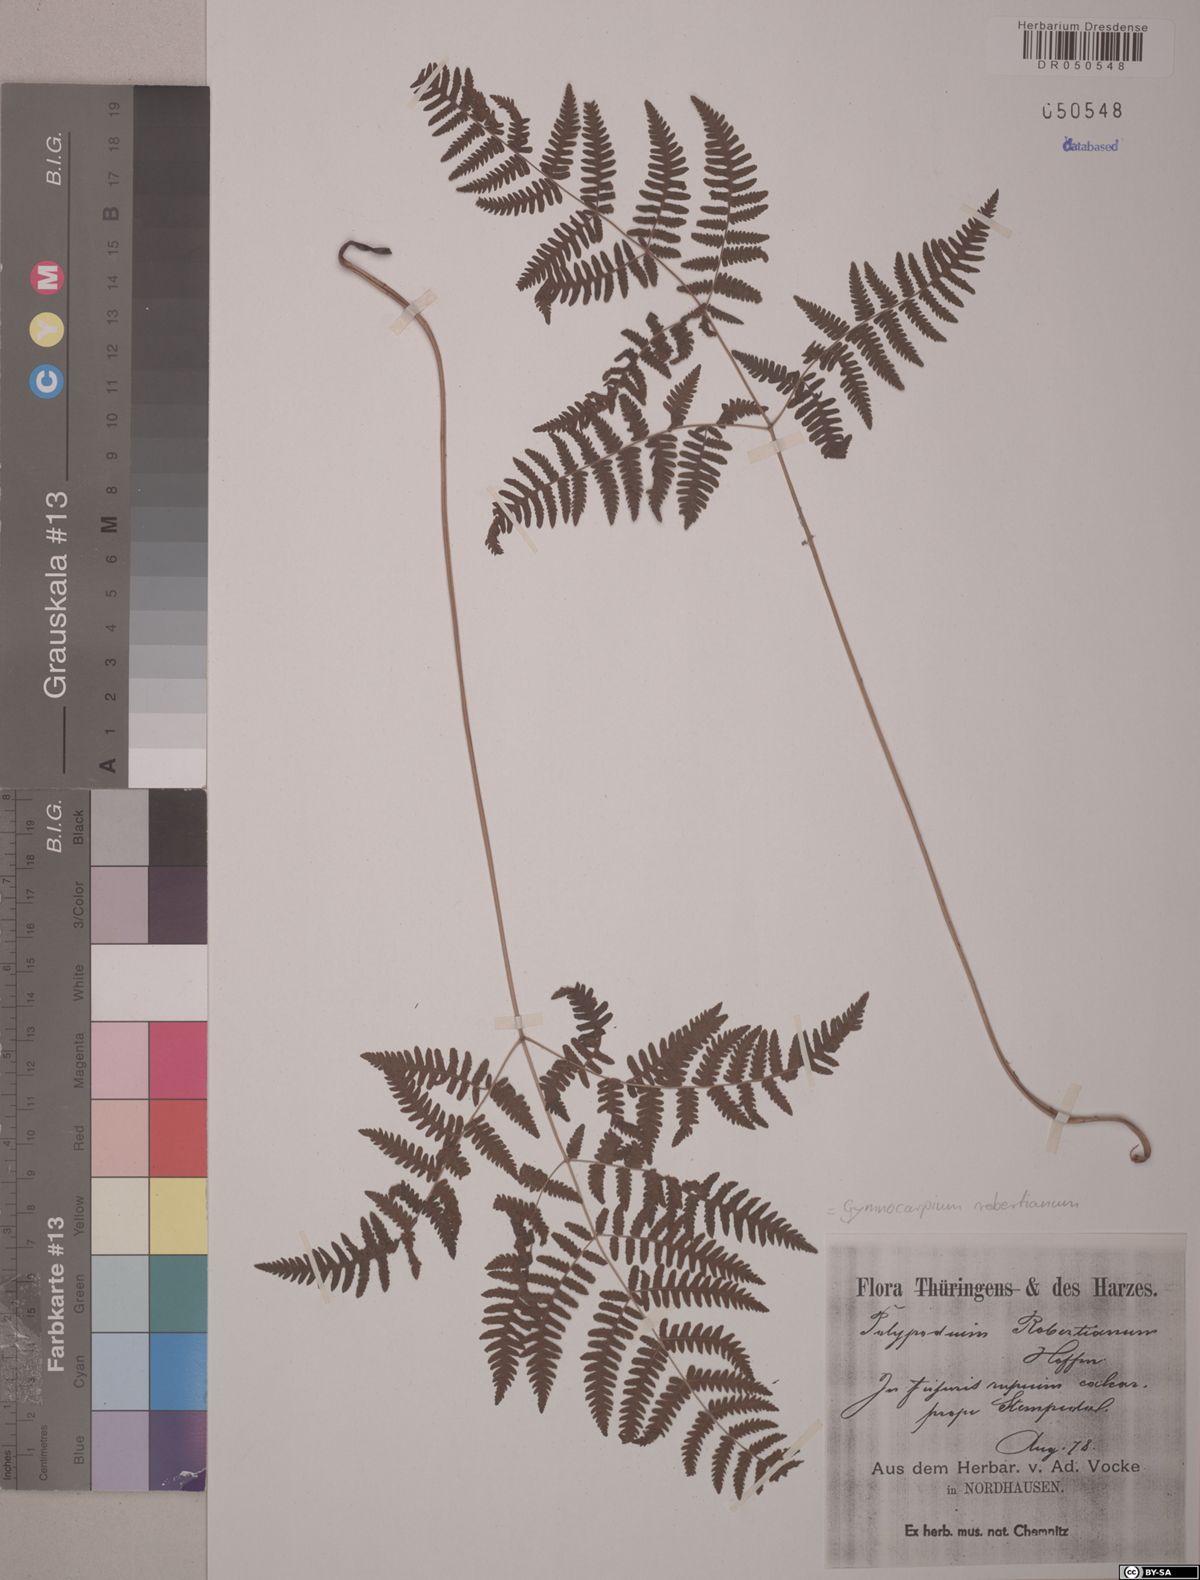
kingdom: Plantae
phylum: Tracheophyta
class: Polypodiopsida
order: Polypodiales
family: Cystopteridaceae
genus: Gymnocarpium
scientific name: Gymnocarpium robertianum
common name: Limestone fern
